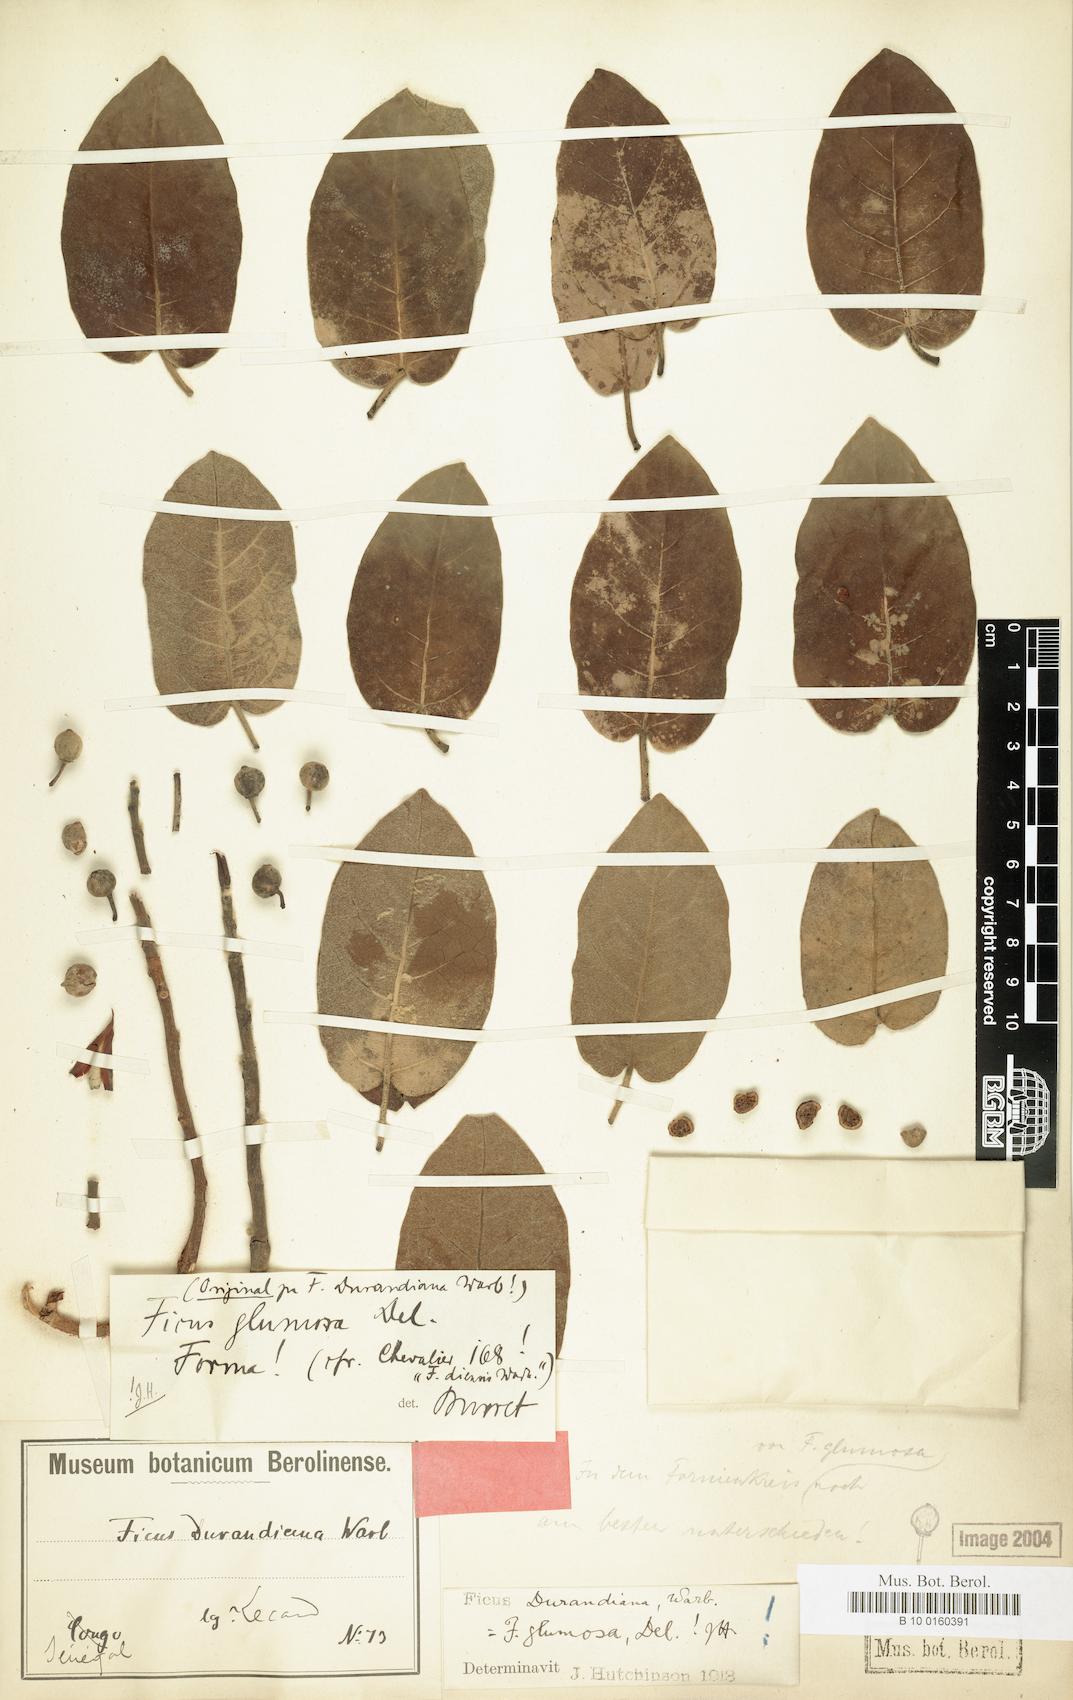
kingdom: Plantae
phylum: Tracheophyta
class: Magnoliopsida
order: Rosales
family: Moraceae
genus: Ficus
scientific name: Ficus glumosa
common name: Hairy rock fig
